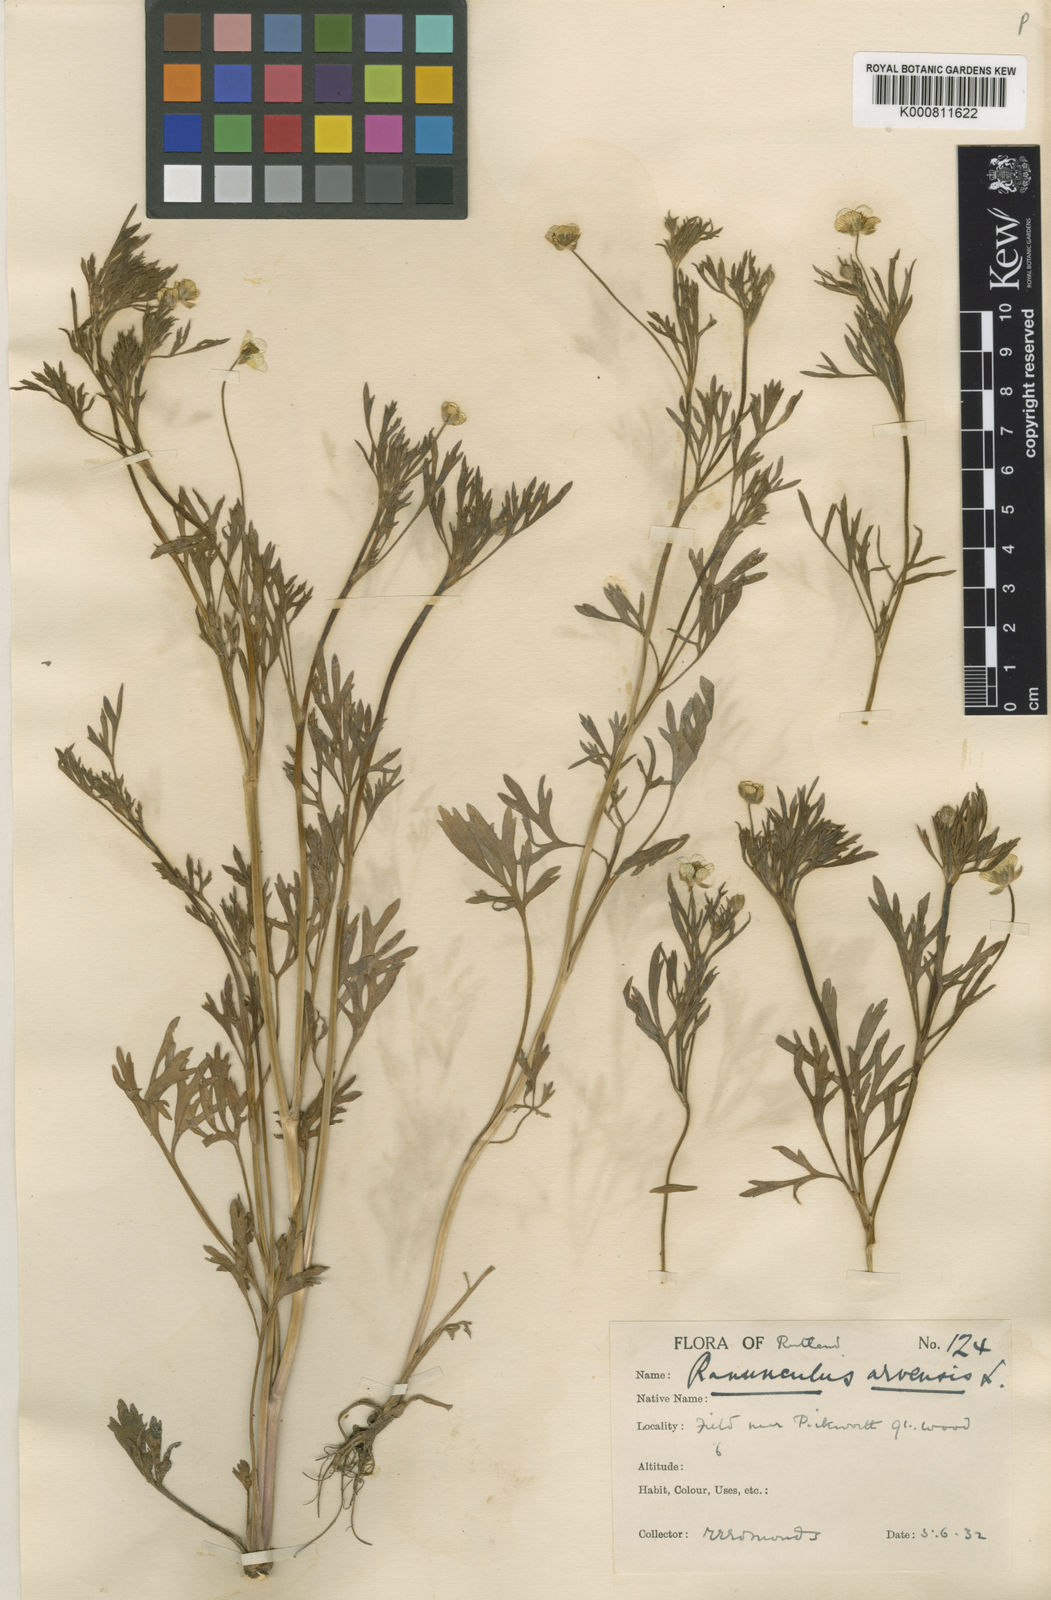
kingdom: Plantae
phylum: Tracheophyta
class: Magnoliopsida
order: Ranunculales
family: Ranunculaceae
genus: Ranunculus
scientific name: Ranunculus arvensis
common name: Corn buttercup
